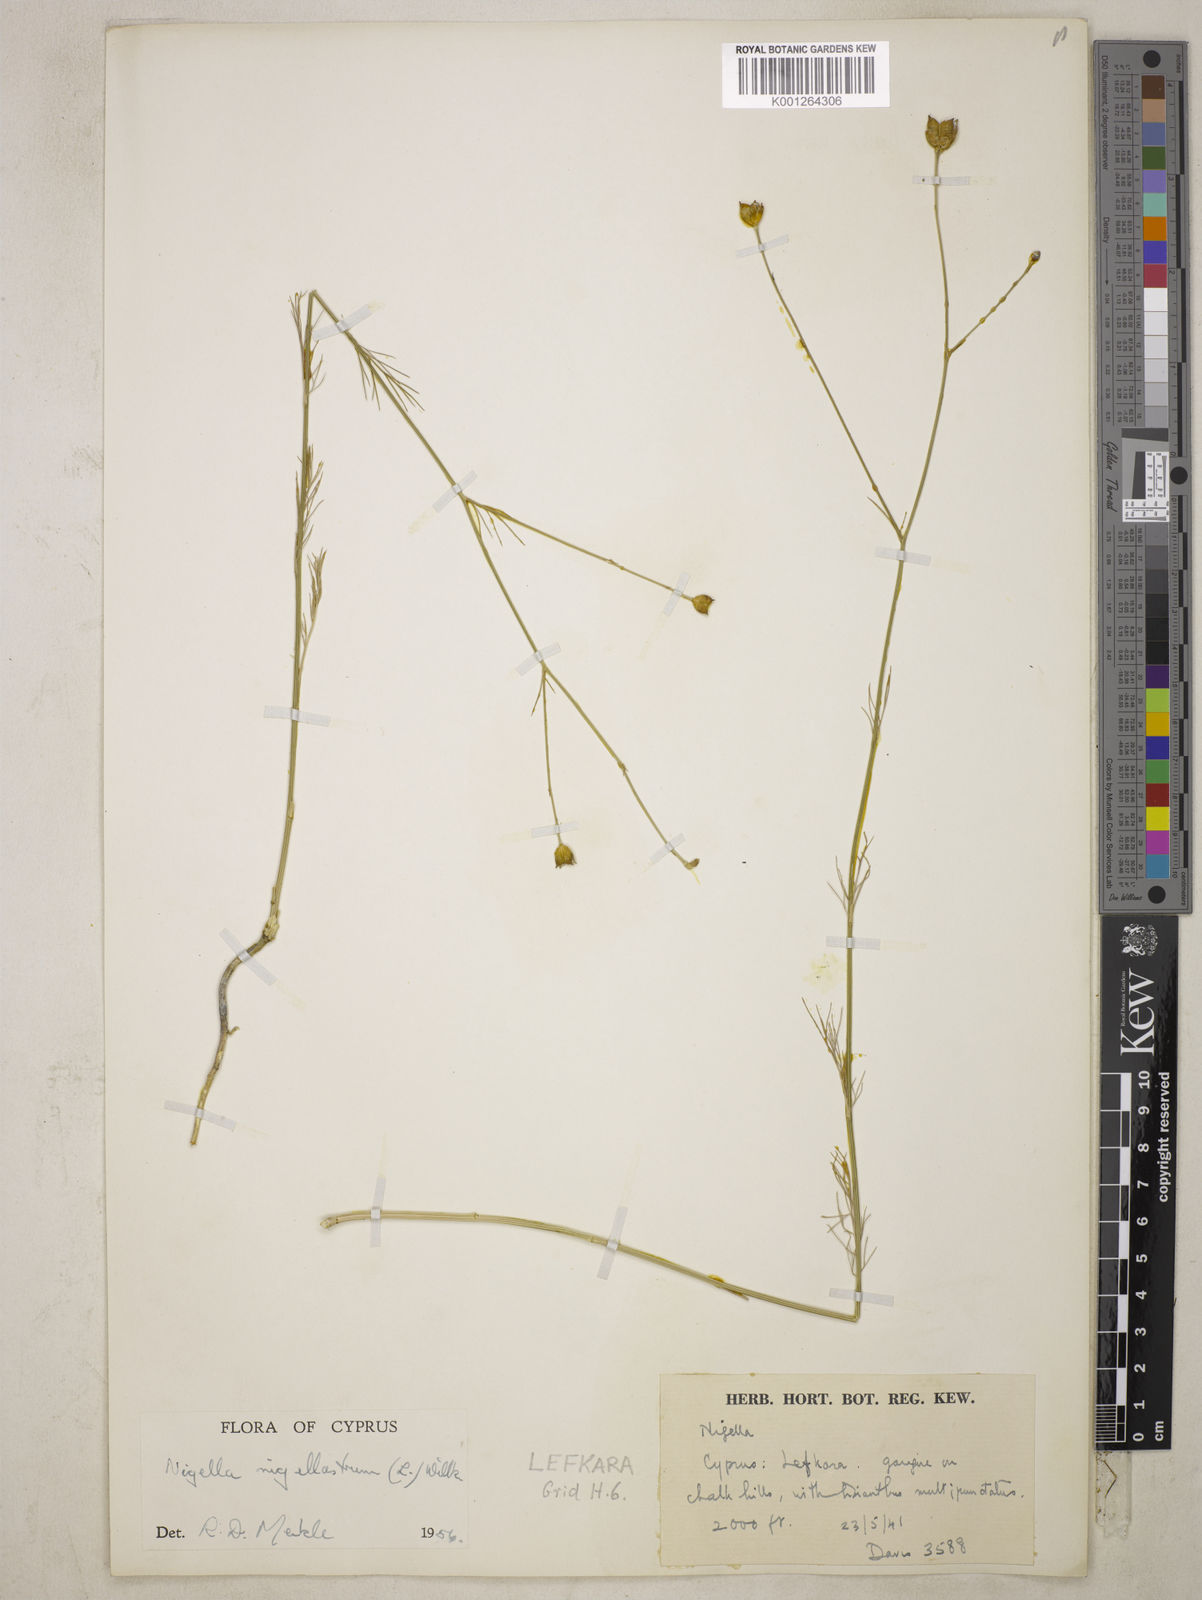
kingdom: Plantae
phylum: Tracheophyta
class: Magnoliopsida
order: Ranunculales
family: Ranunculaceae
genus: Garidella
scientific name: Garidella nigellastrum
